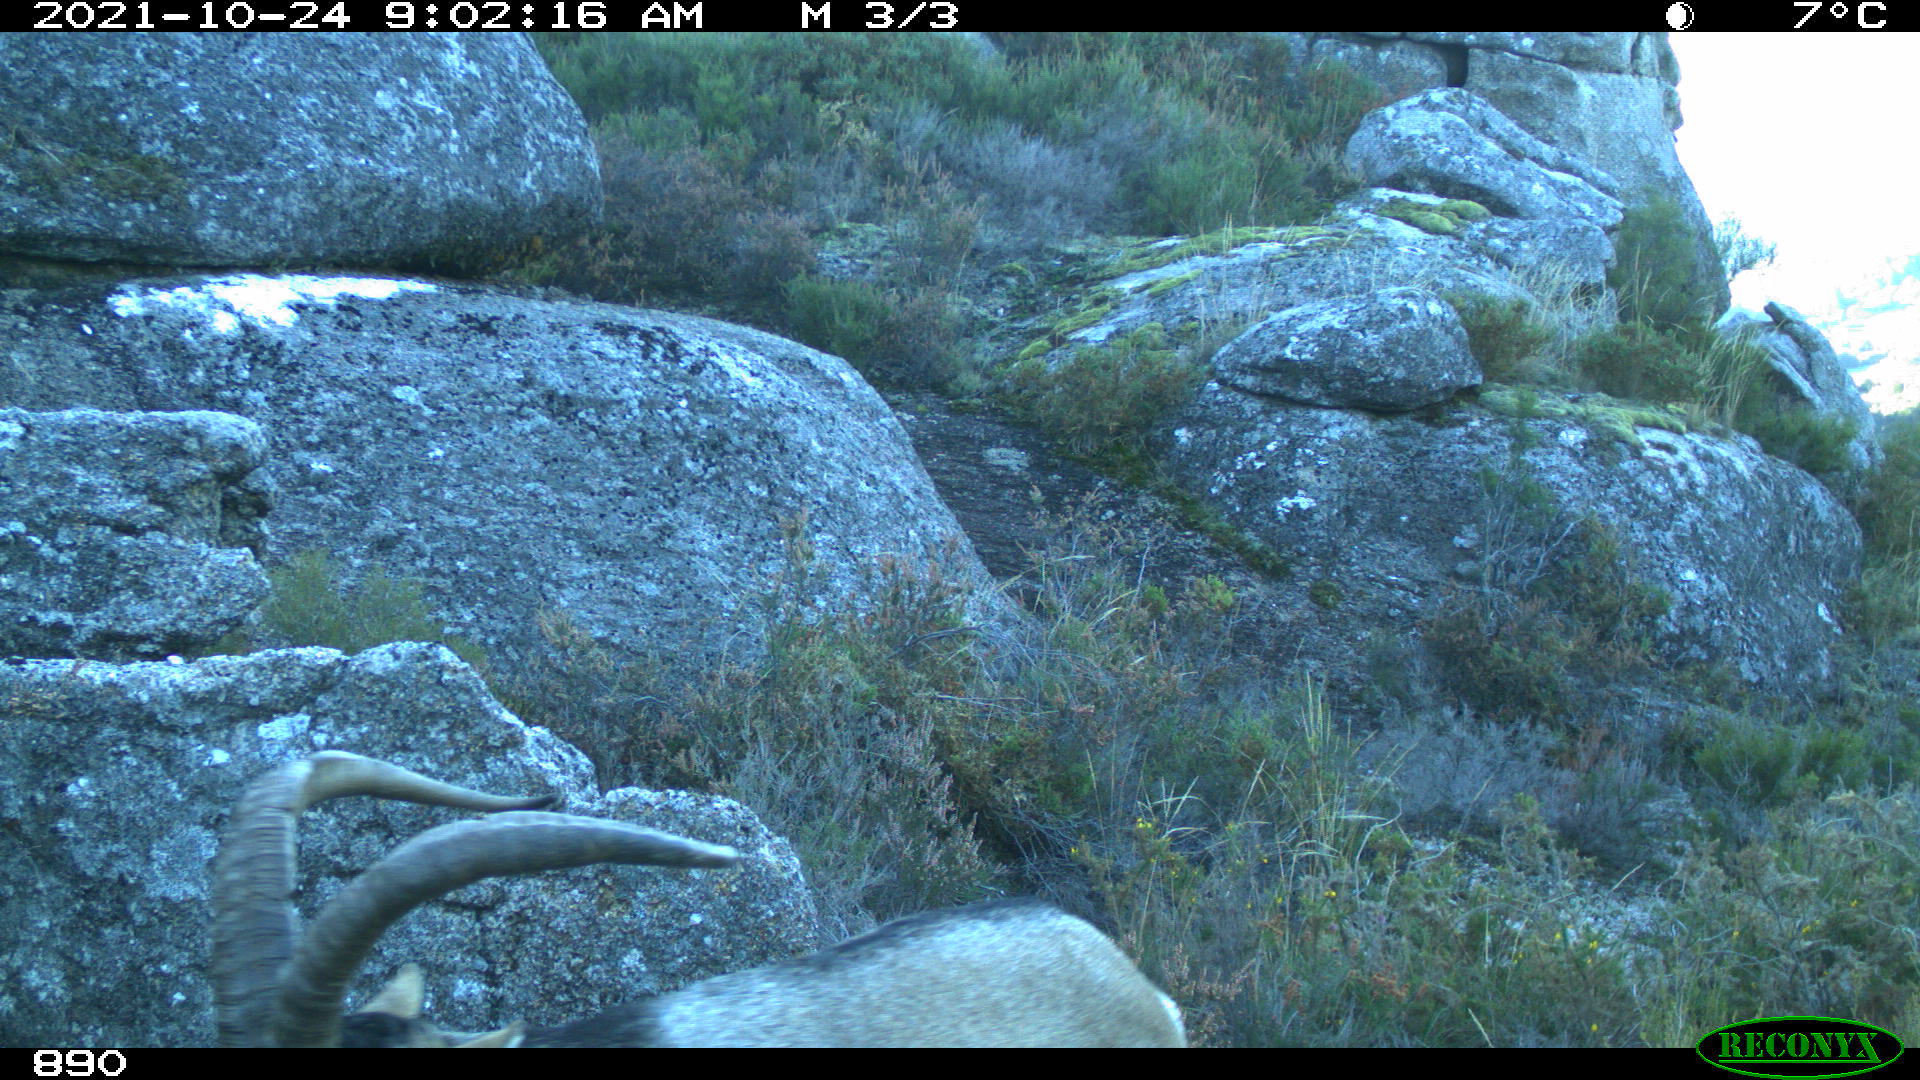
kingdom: Animalia
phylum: Chordata
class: Mammalia
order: Artiodactyla
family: Bovidae
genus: Capra
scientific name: Capra pyrenaica
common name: Spanish ibex
